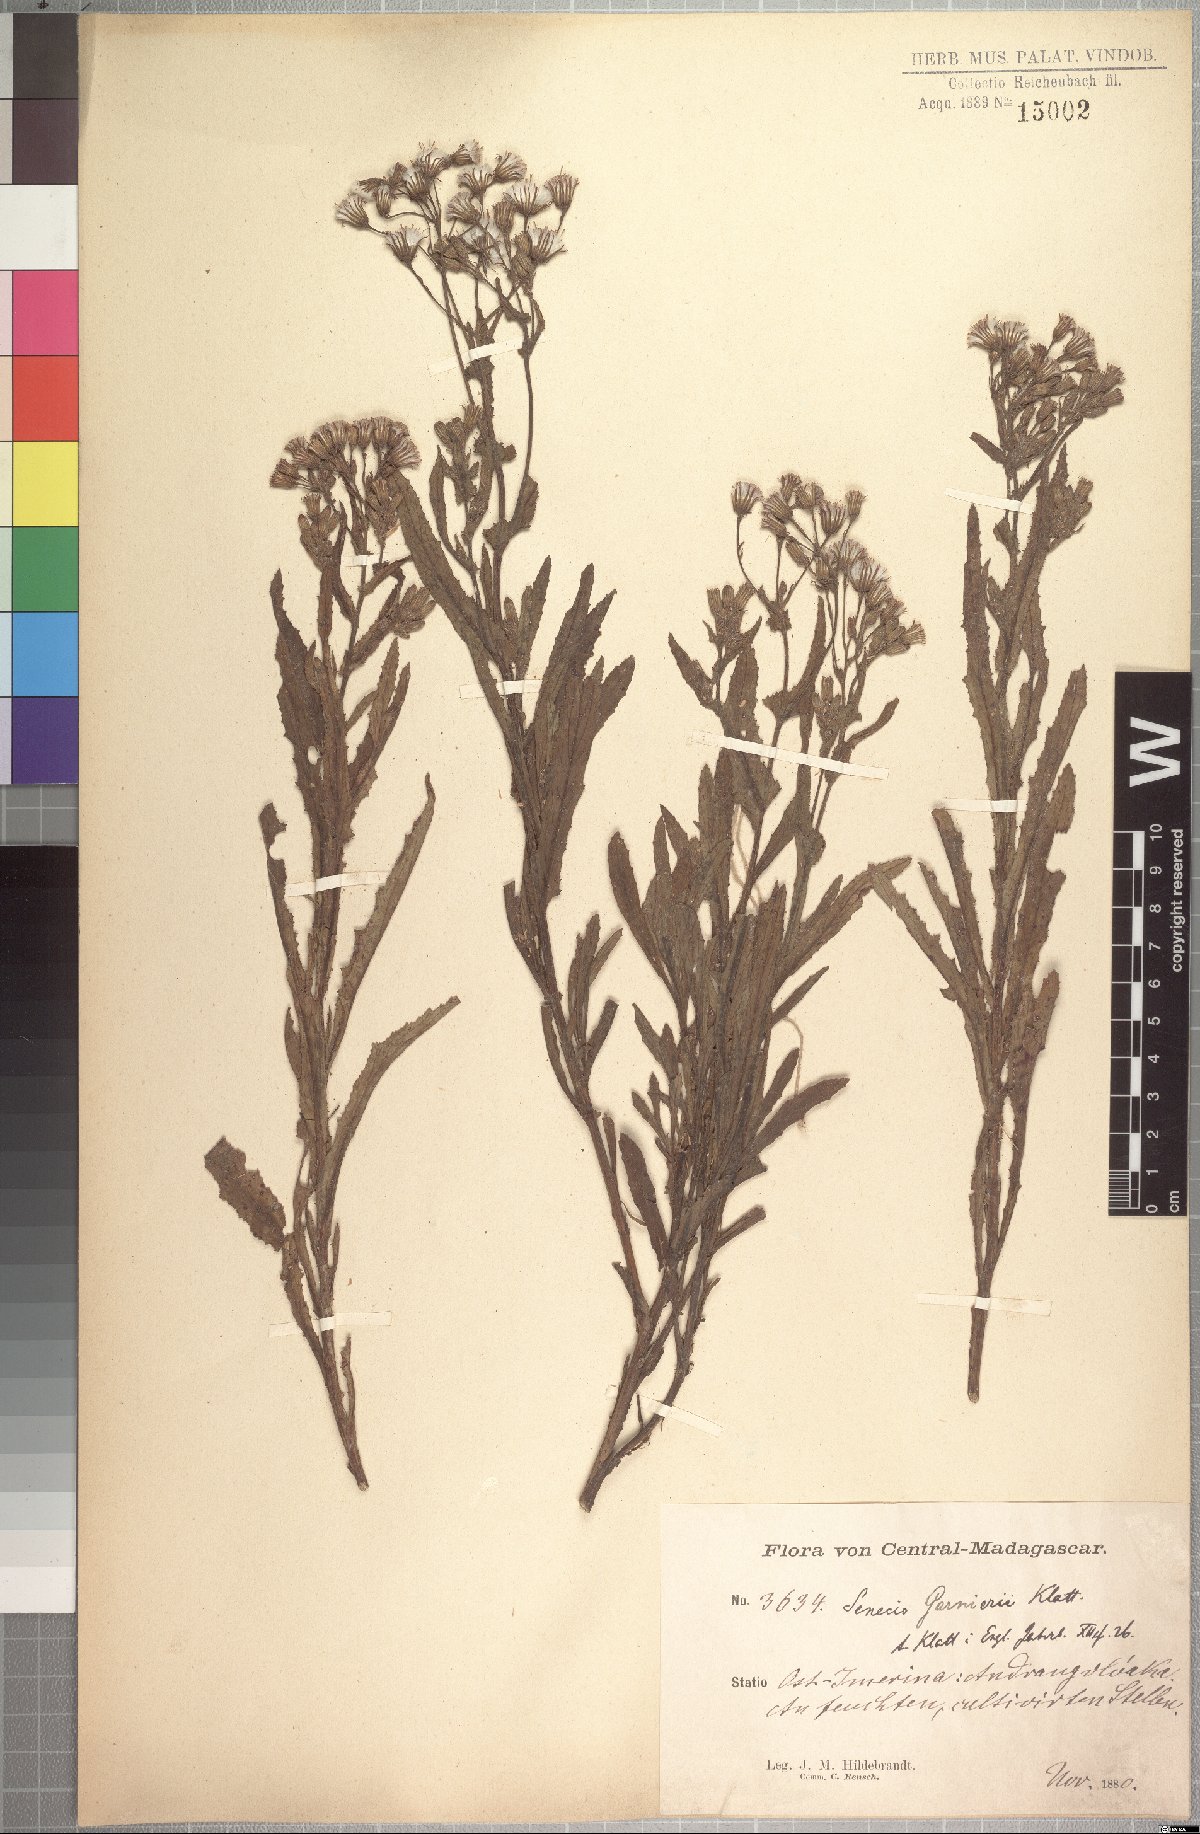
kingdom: Plantae
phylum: Tracheophyta
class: Magnoliopsida
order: Asterales
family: Asteraceae
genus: Senecio
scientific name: Senecio erechtitioides
